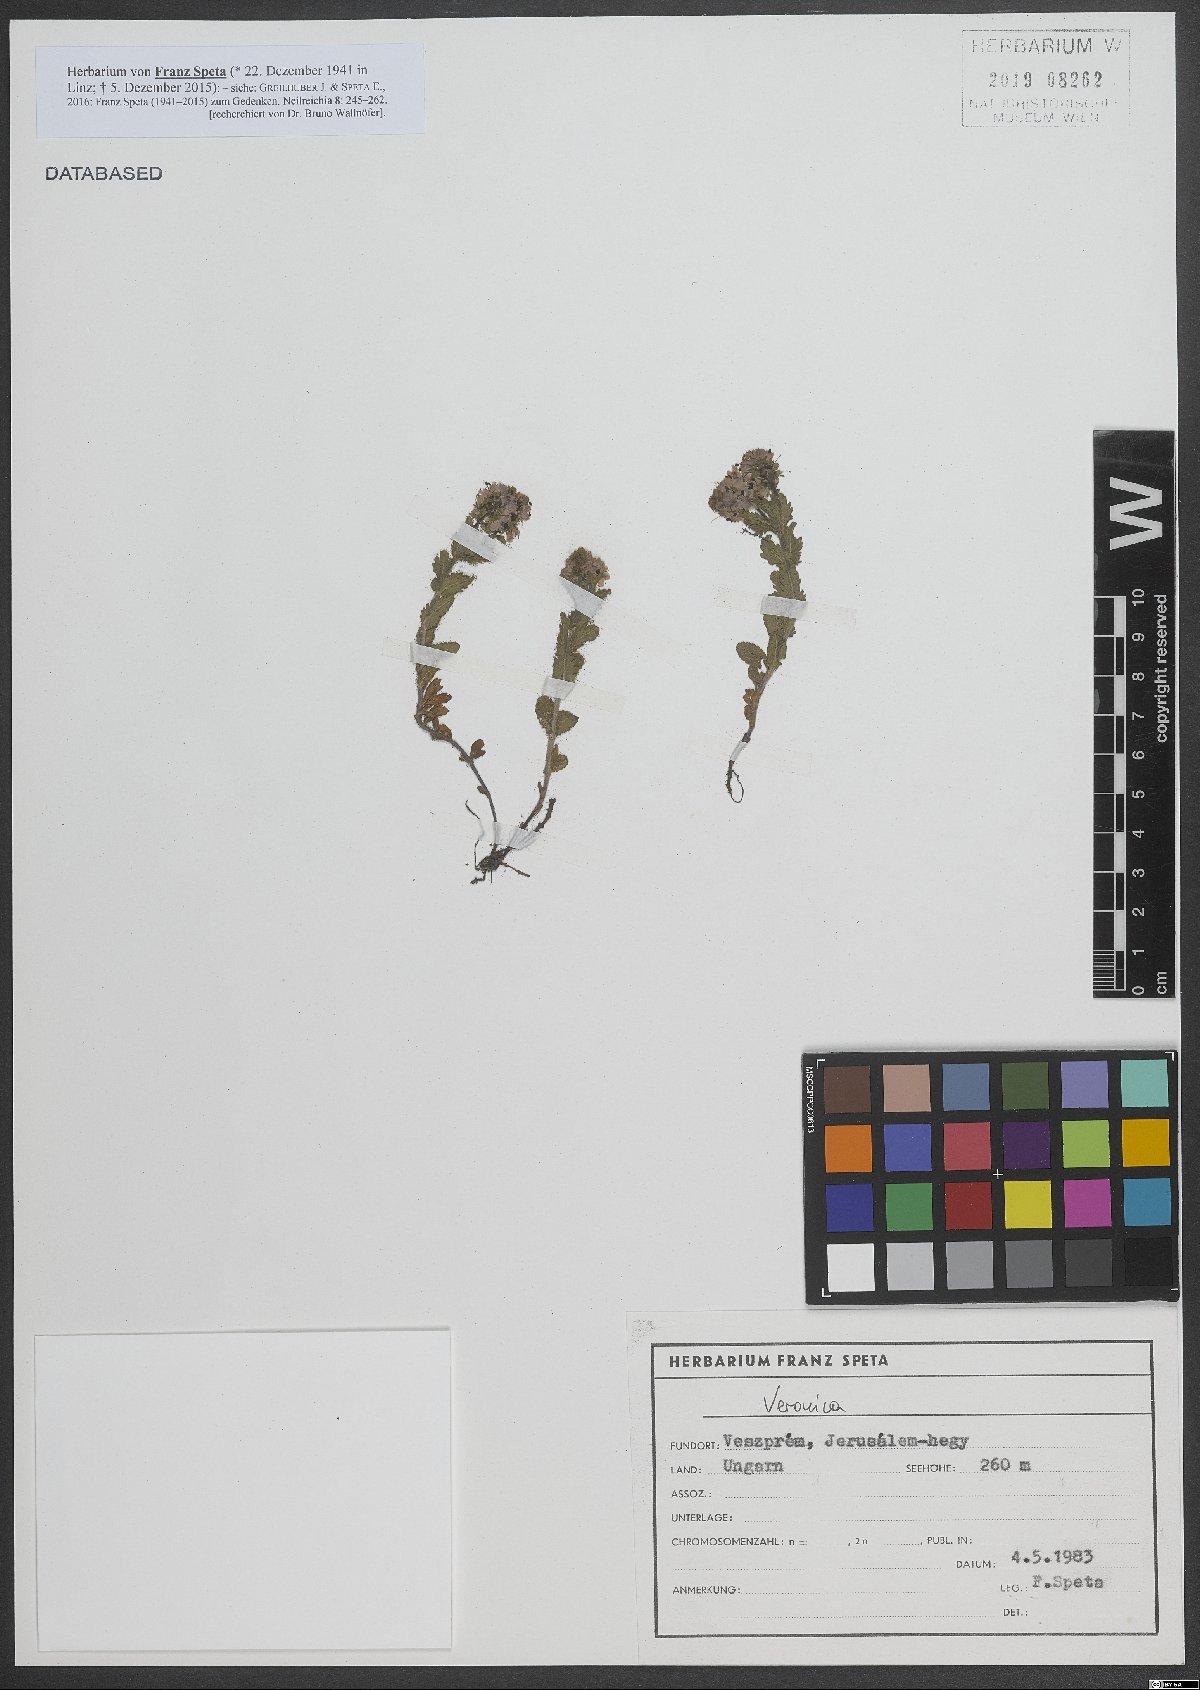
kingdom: Plantae
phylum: Tracheophyta
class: Magnoliopsida
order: Lamiales
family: Plantaginaceae
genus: Veronica
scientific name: Veronica
